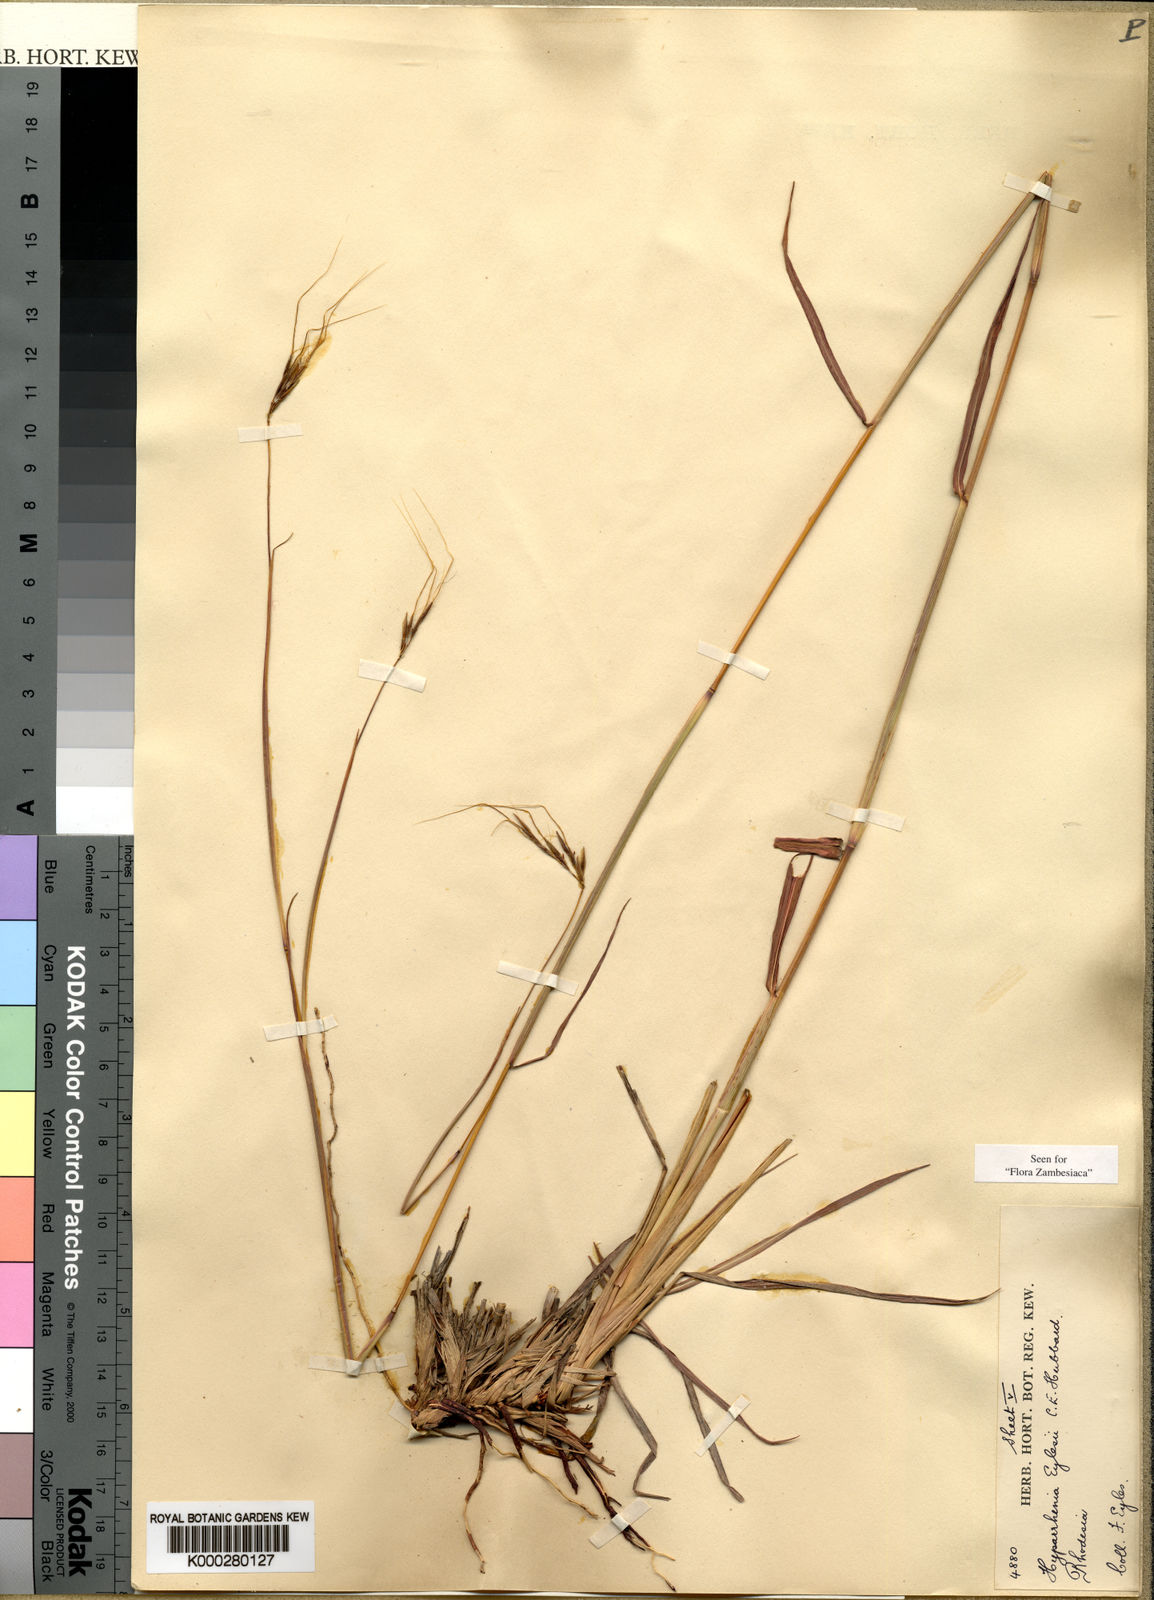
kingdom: Plantae
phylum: Tracheophyta
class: Liliopsida
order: Poales
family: Poaceae
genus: Elymandra
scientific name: Elymandra grallata
